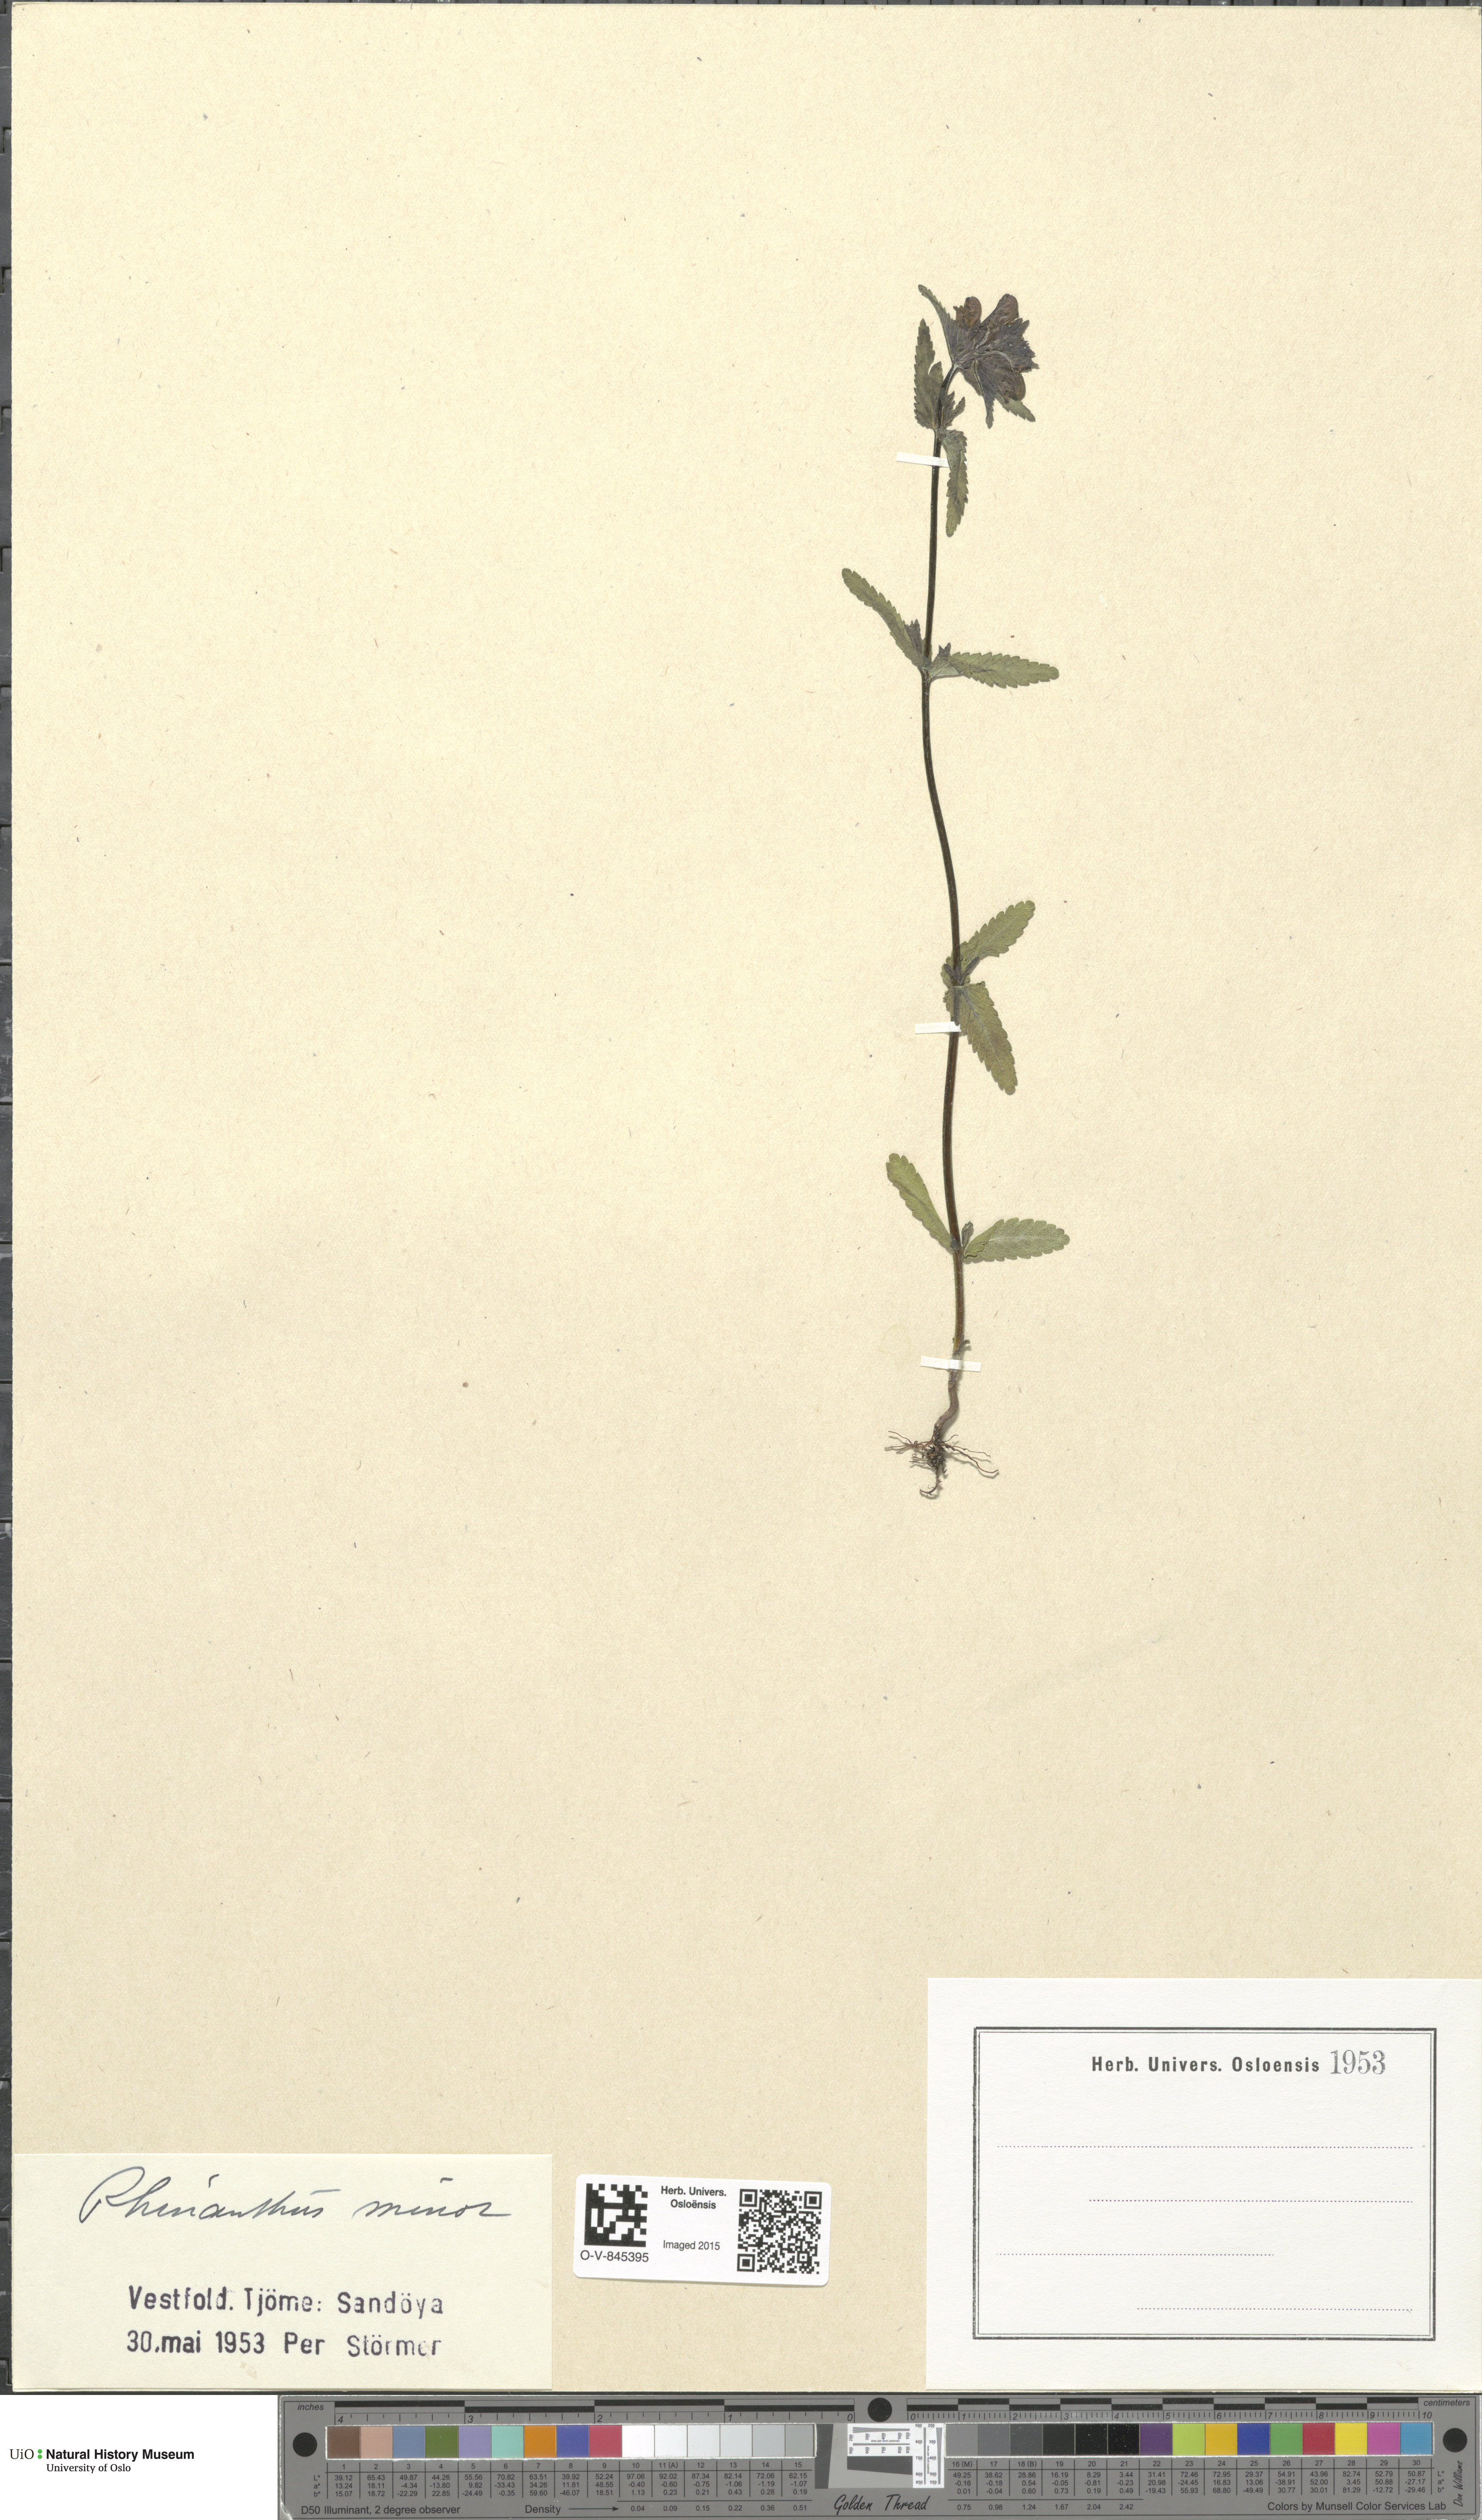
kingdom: Plantae
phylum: Tracheophyta
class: Magnoliopsida
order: Lamiales
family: Orobanchaceae
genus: Rhinanthus
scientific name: Rhinanthus minor
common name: Yellow-rattle
